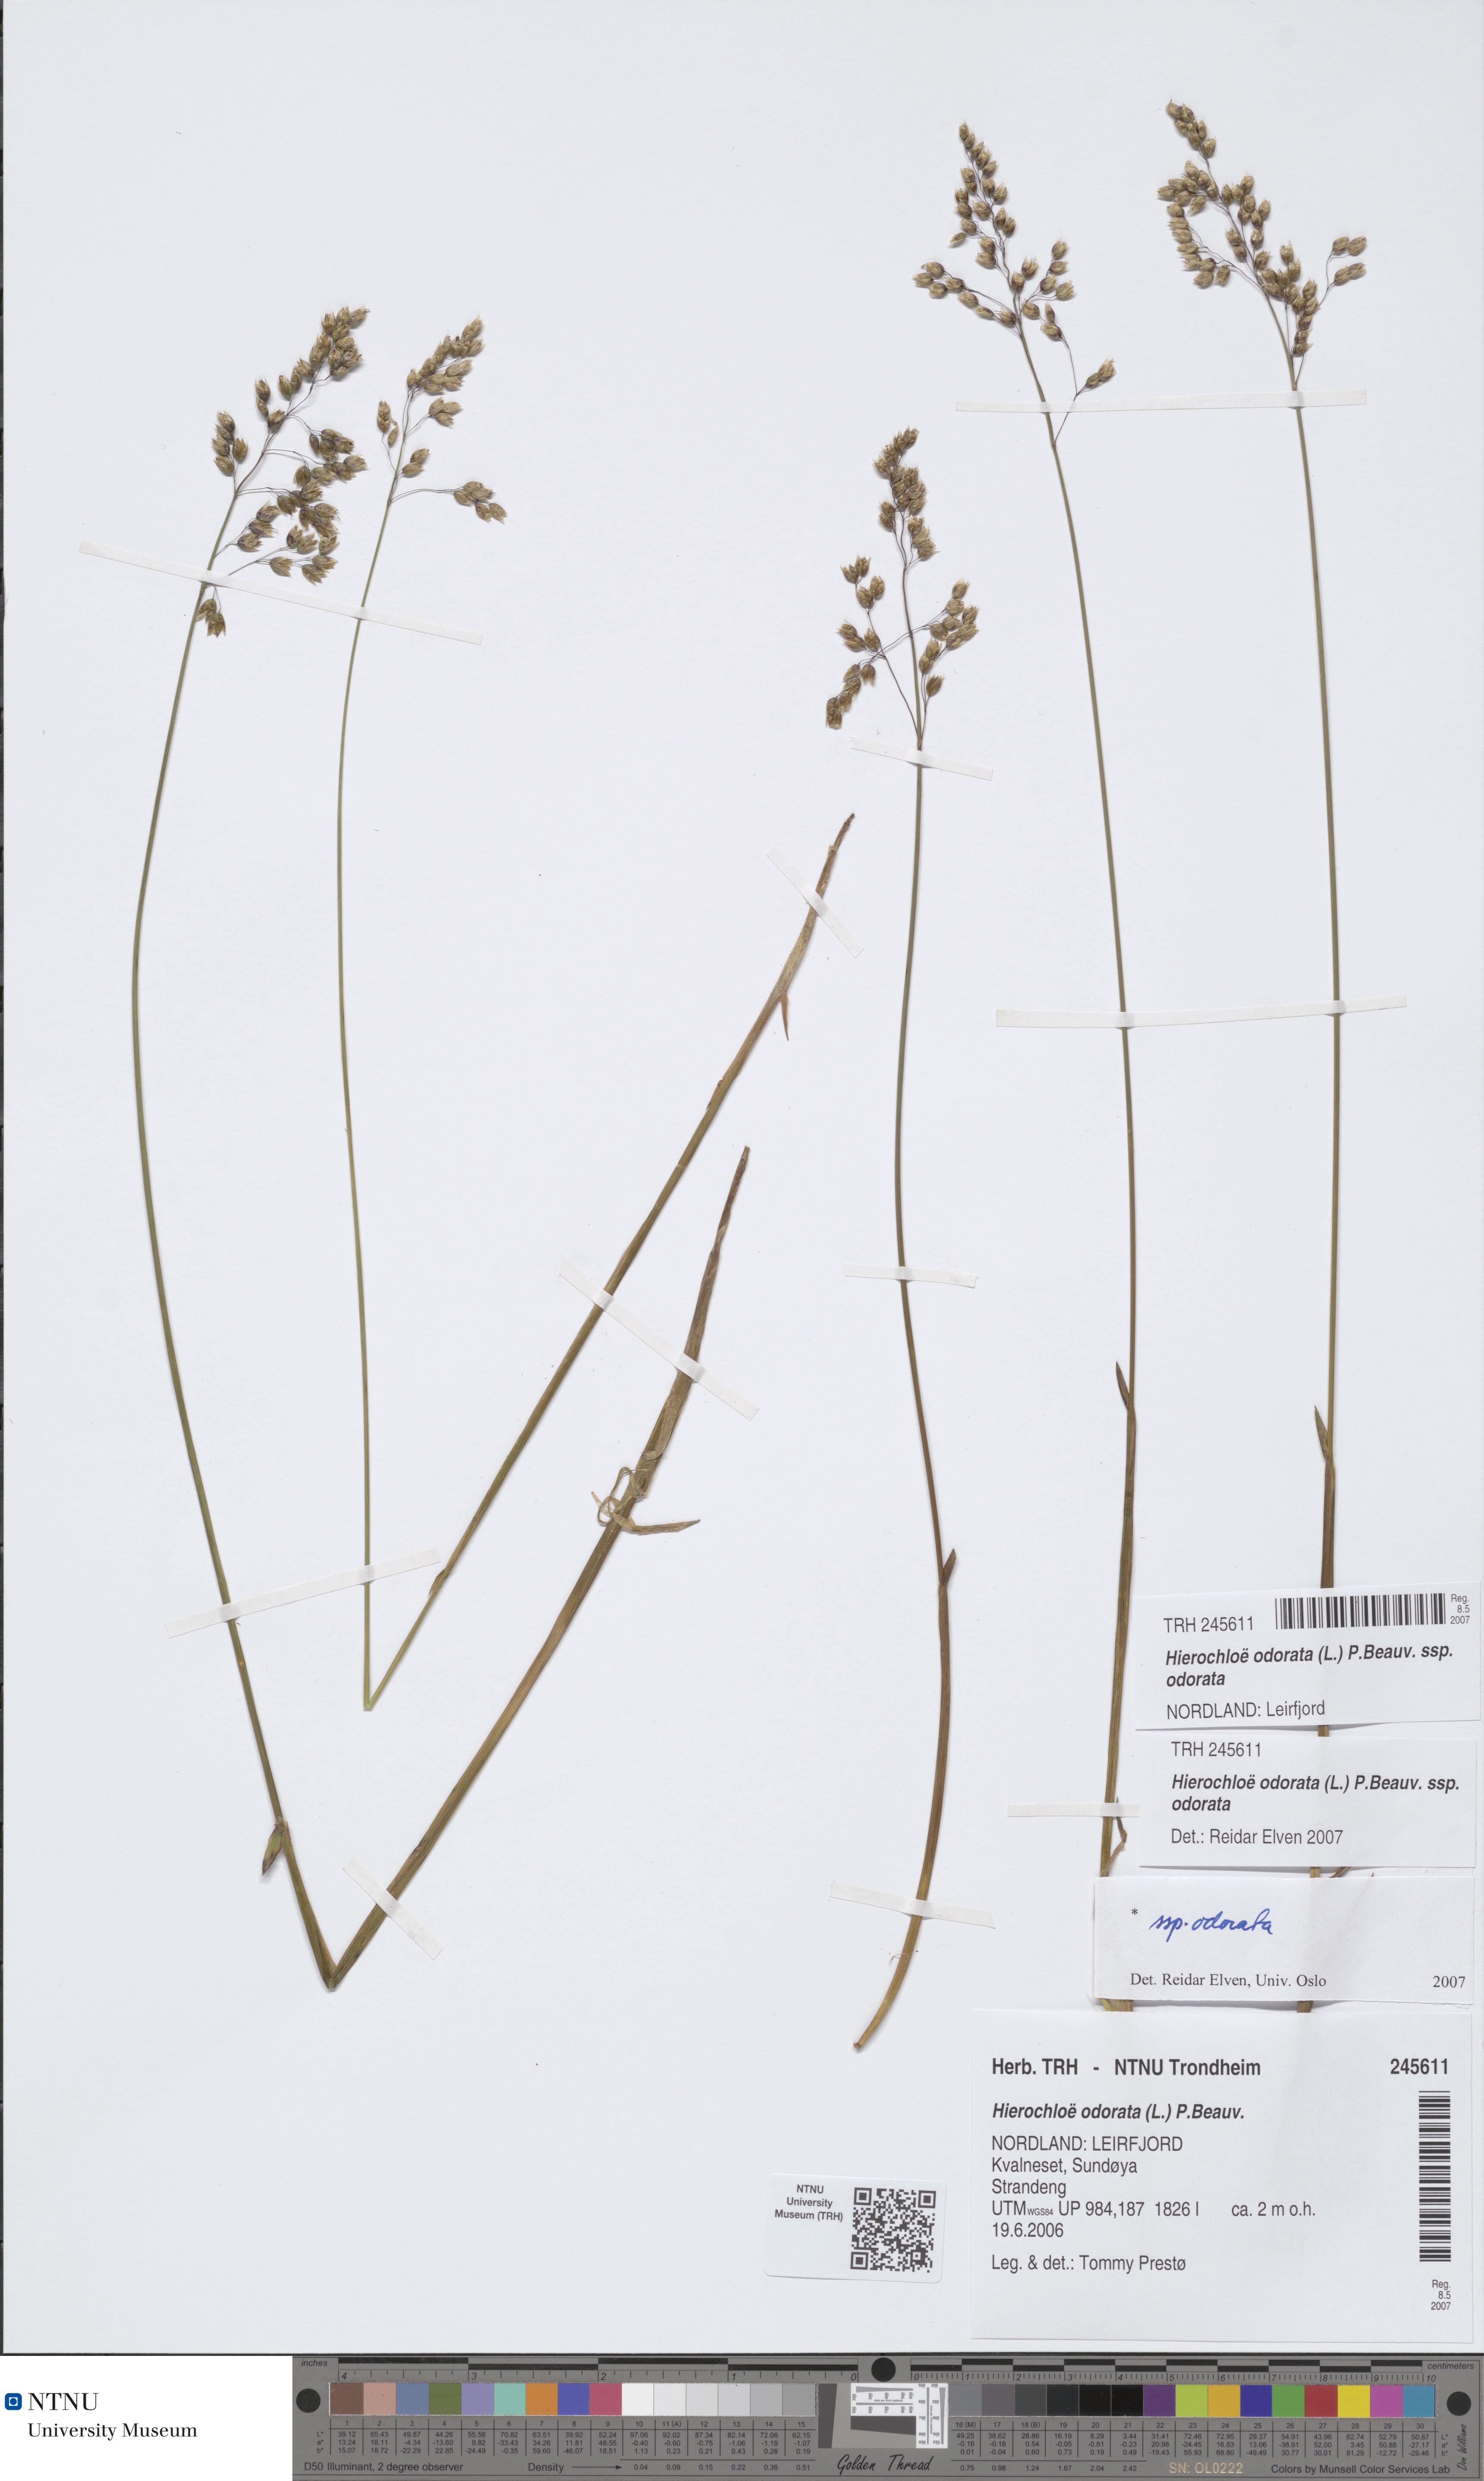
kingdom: Plantae
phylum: Tracheophyta
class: Liliopsida
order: Poales
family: Poaceae
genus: Anthoxanthum
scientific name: Anthoxanthum nitens
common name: Holy grass
